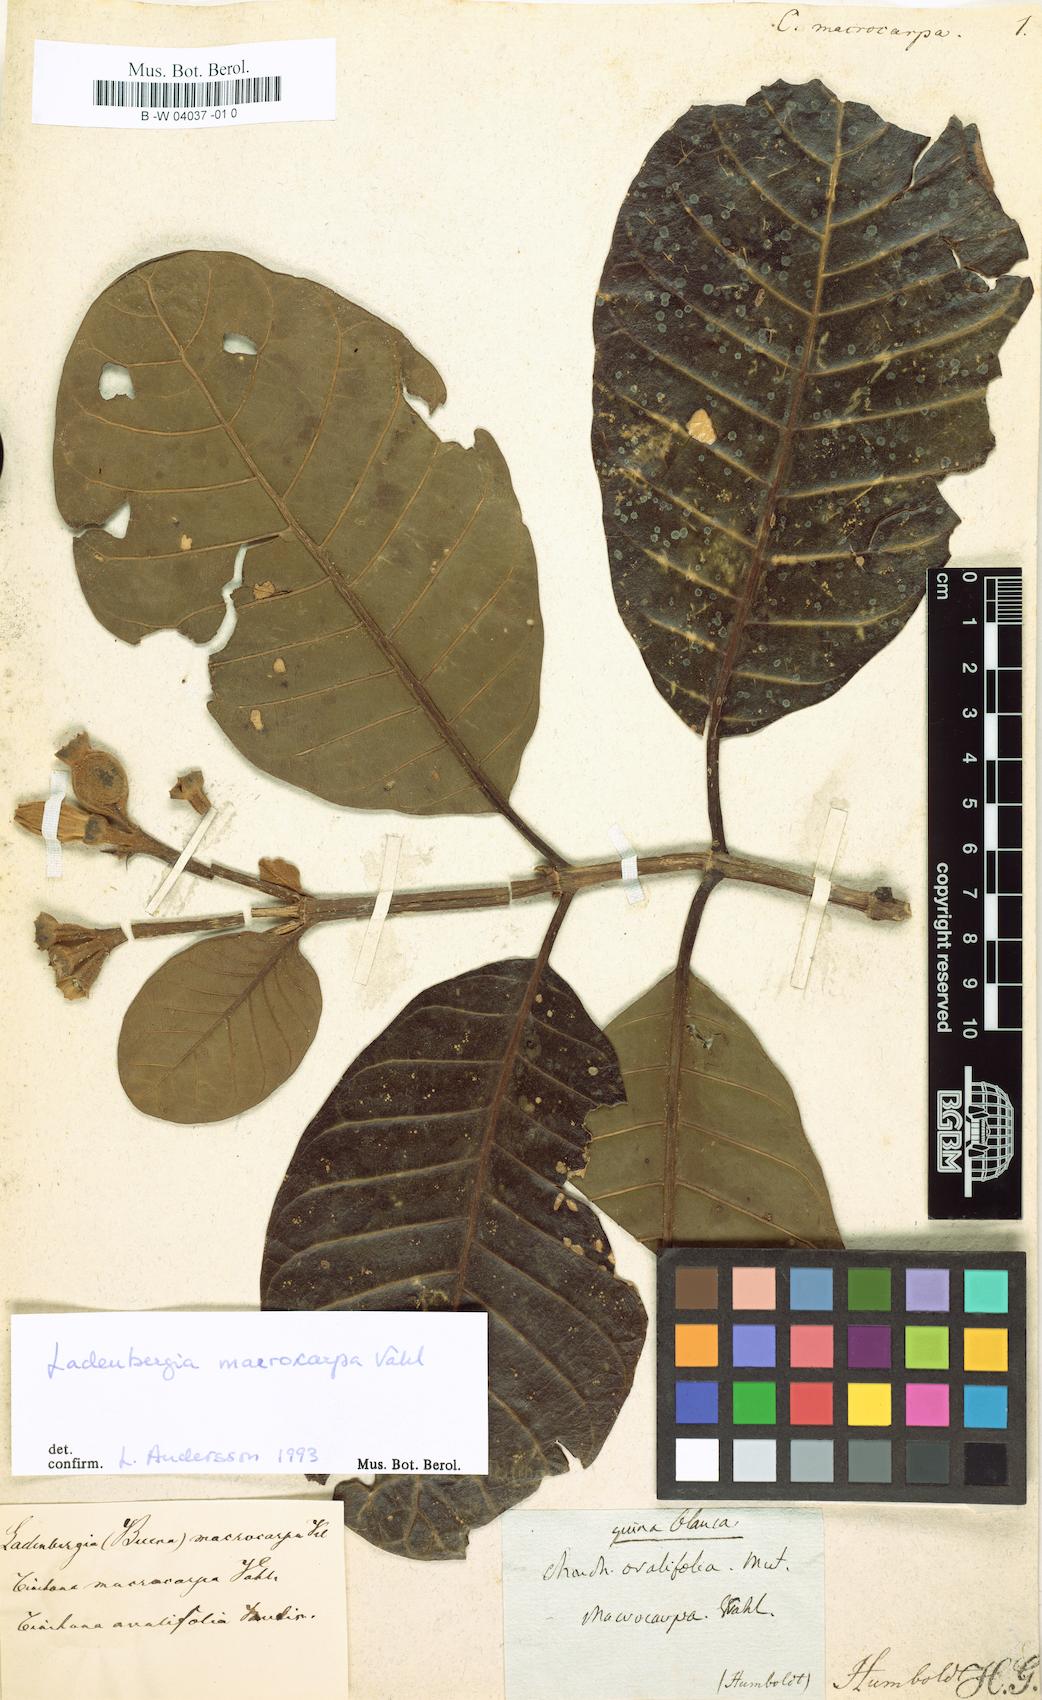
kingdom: Plantae
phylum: Tracheophyta
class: Magnoliopsida
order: Gentianales
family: Rubiaceae
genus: Ladenbergia
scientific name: Ladenbergia macrocarpa
